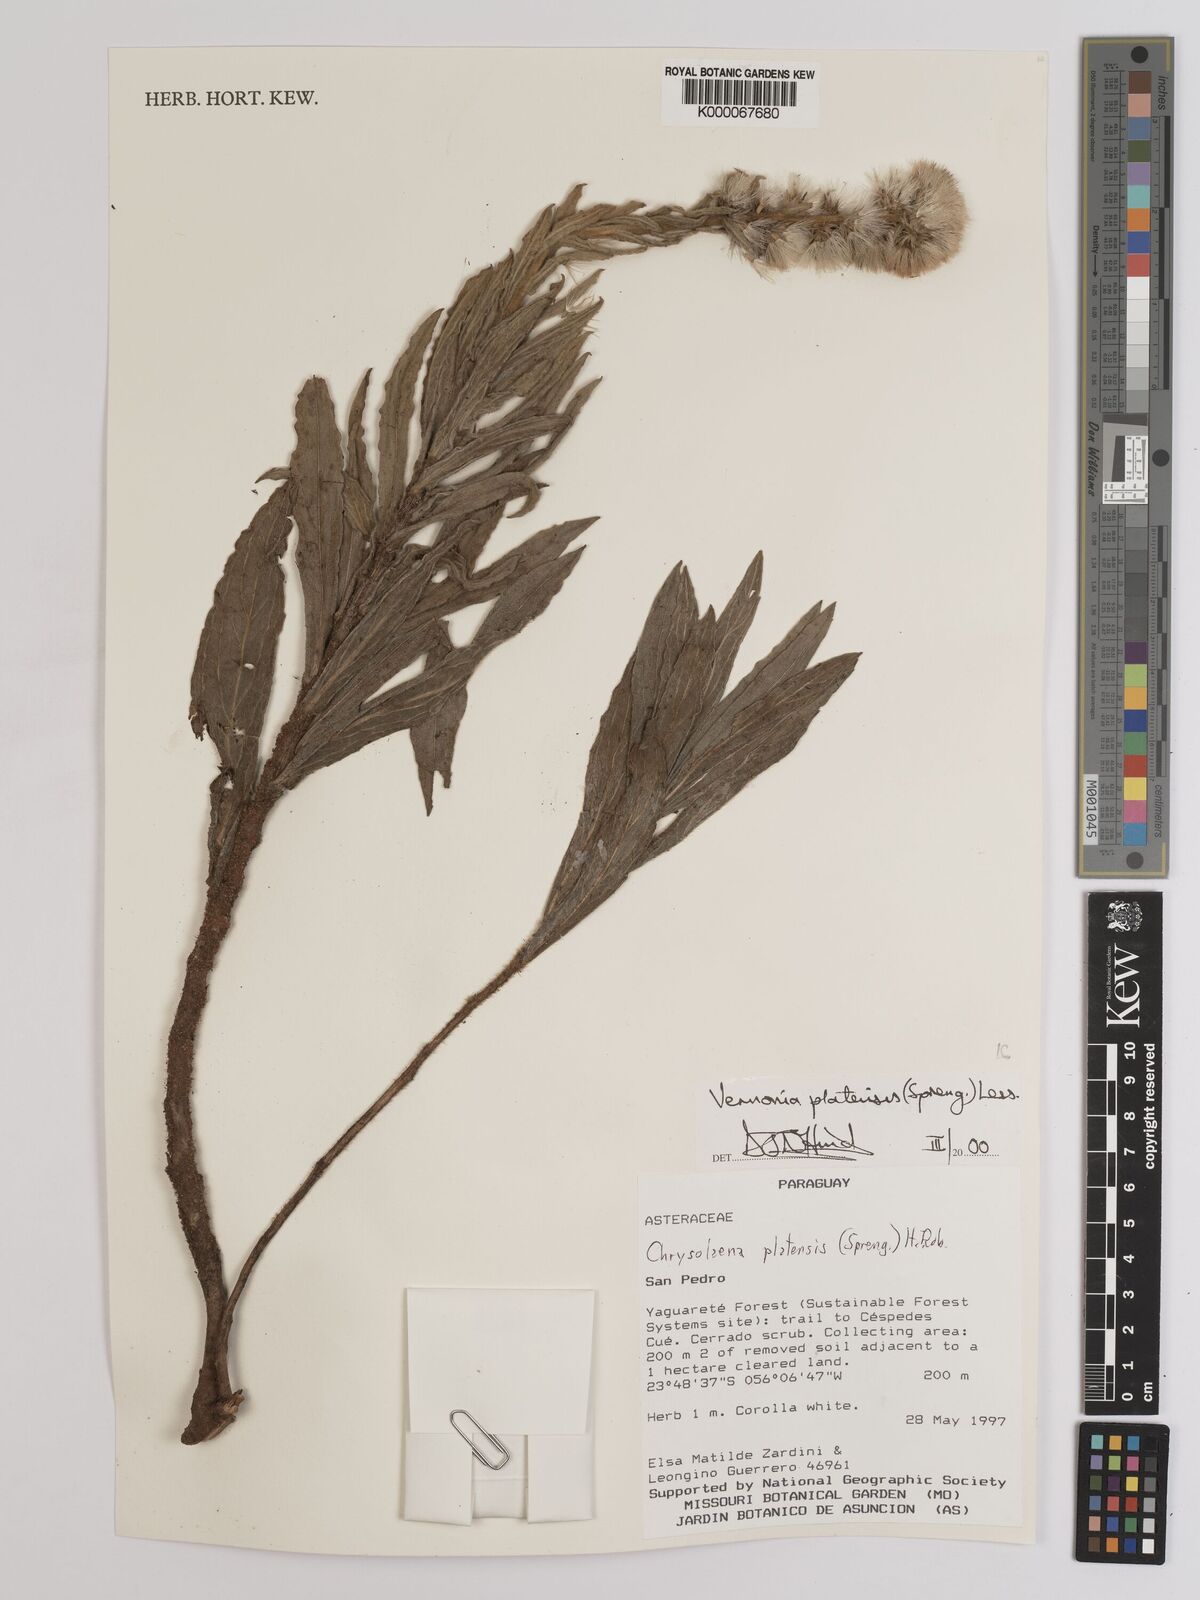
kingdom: Plantae
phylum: Tracheophyta
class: Magnoliopsida
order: Asterales
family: Asteraceae
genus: Chrysolaena
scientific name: Chrysolaena platensis
